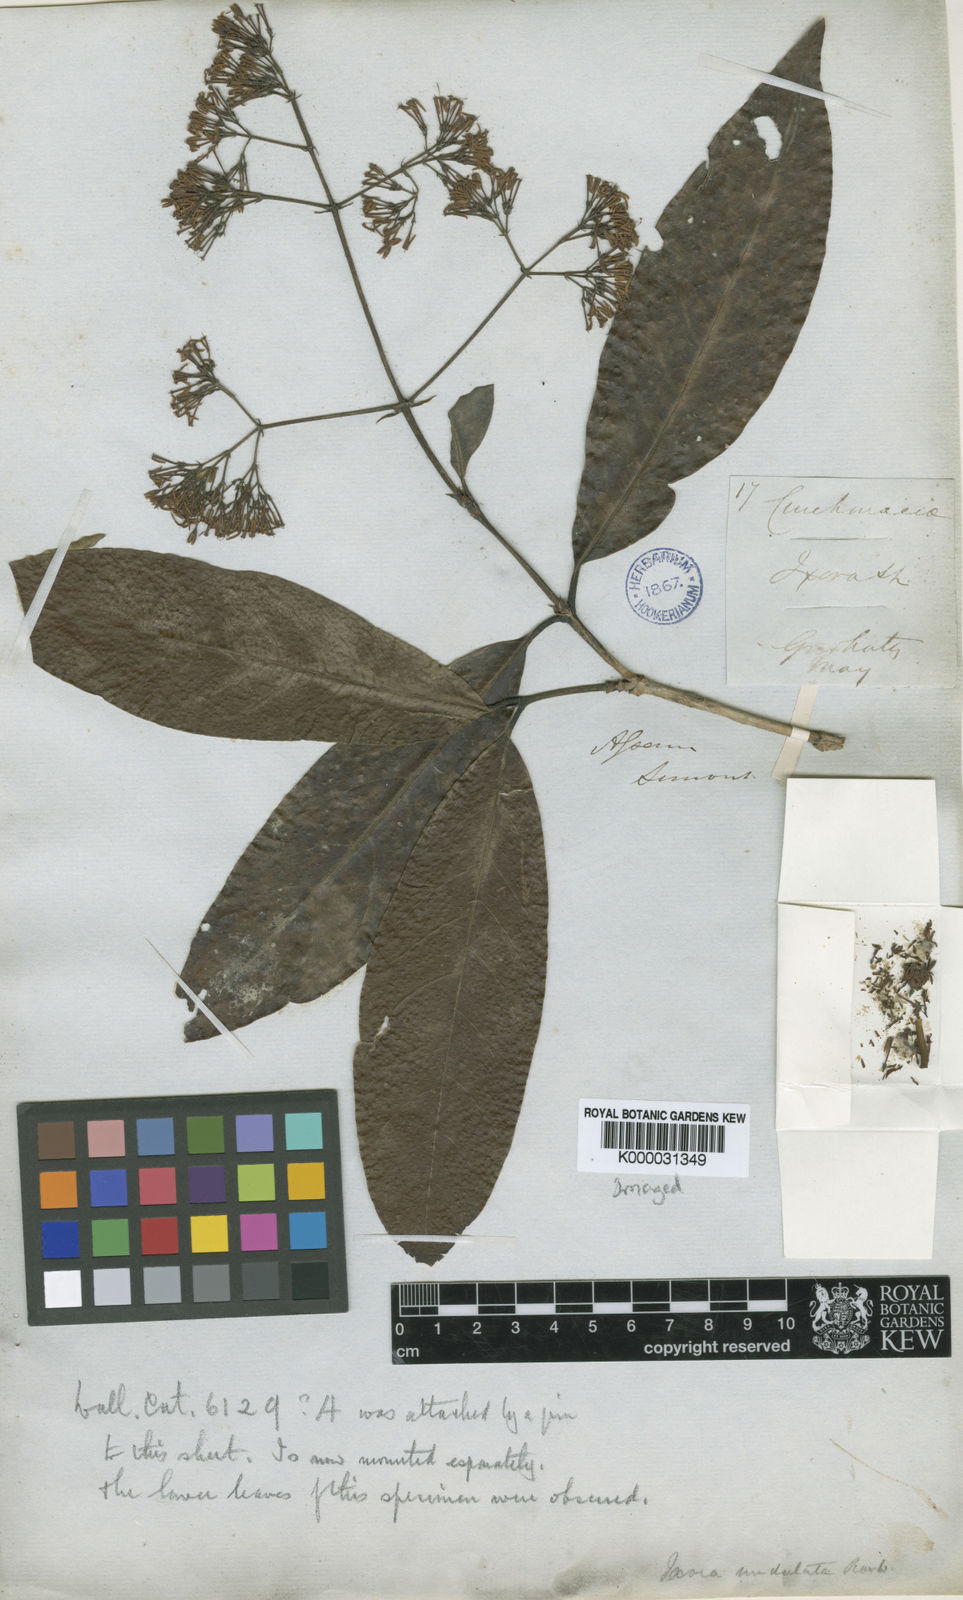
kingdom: Plantae
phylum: Tracheophyta
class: Magnoliopsida
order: Gentianales
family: Rubiaceae
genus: Ixora
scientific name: Ixora undulata
